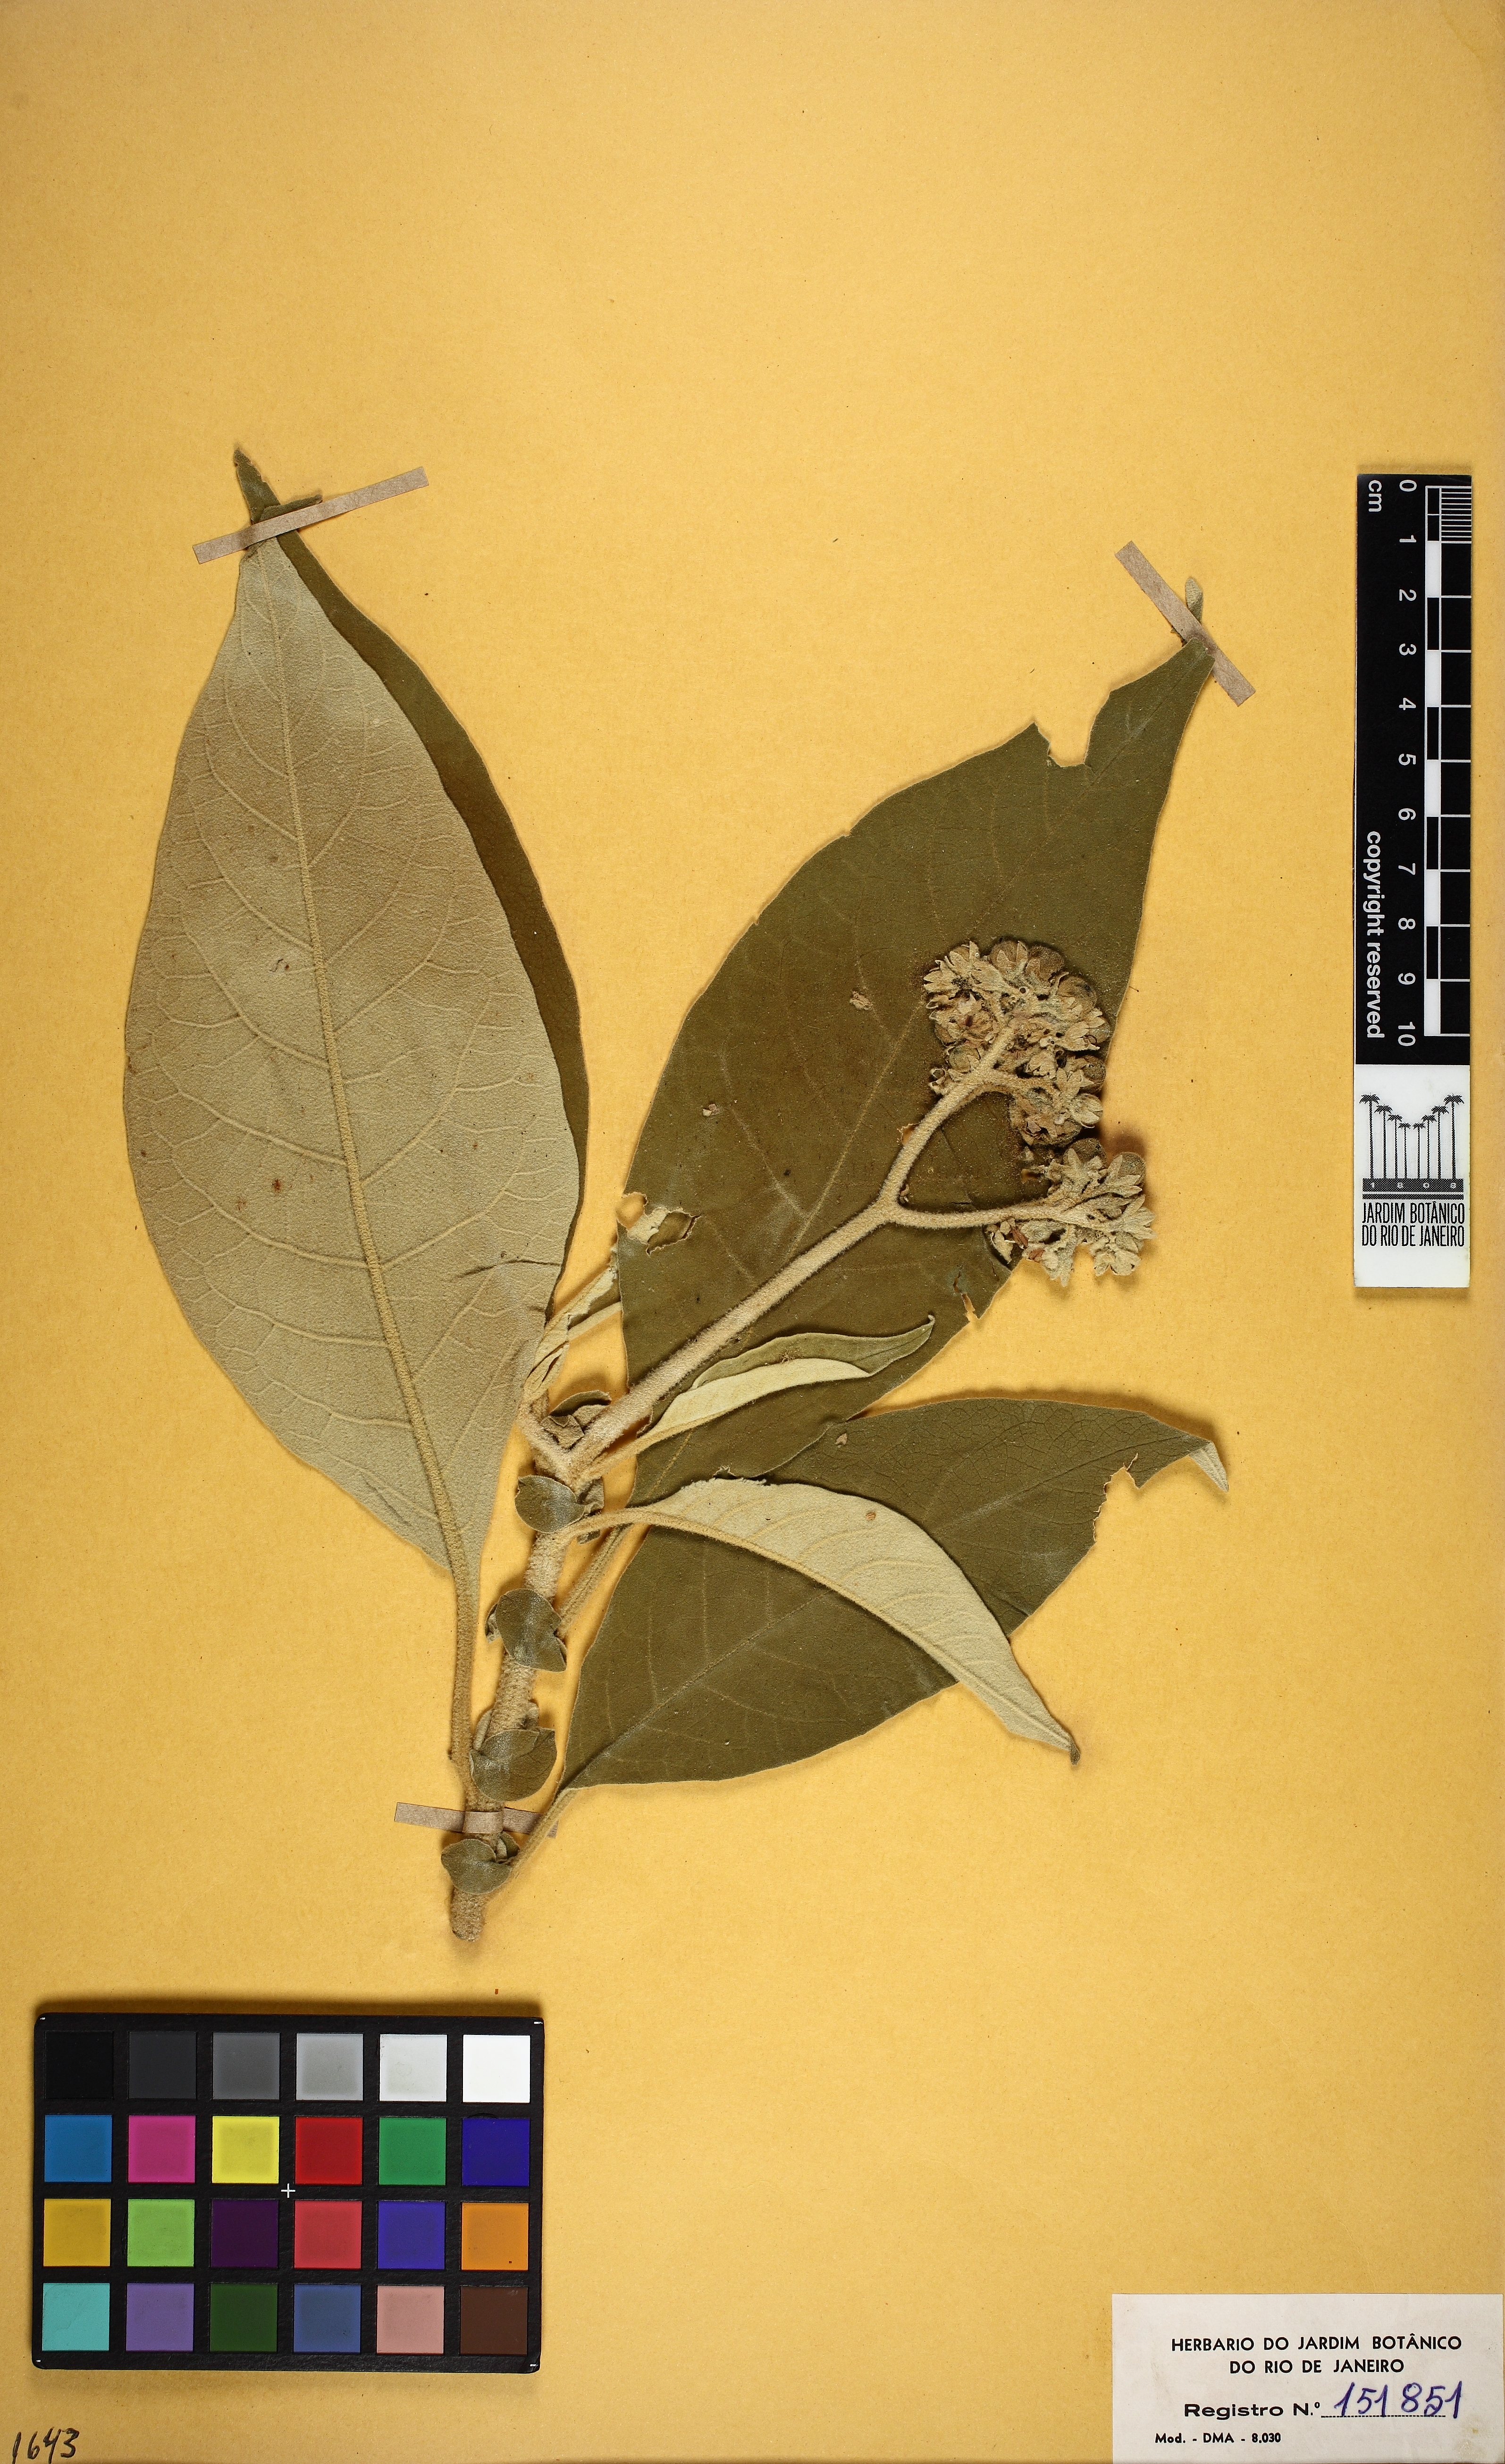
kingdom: Plantae
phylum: Tracheophyta
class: Magnoliopsida
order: Solanales
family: Solanaceae
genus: Solanum
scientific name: Solanum mauritianum
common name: Earleaf nightshade
